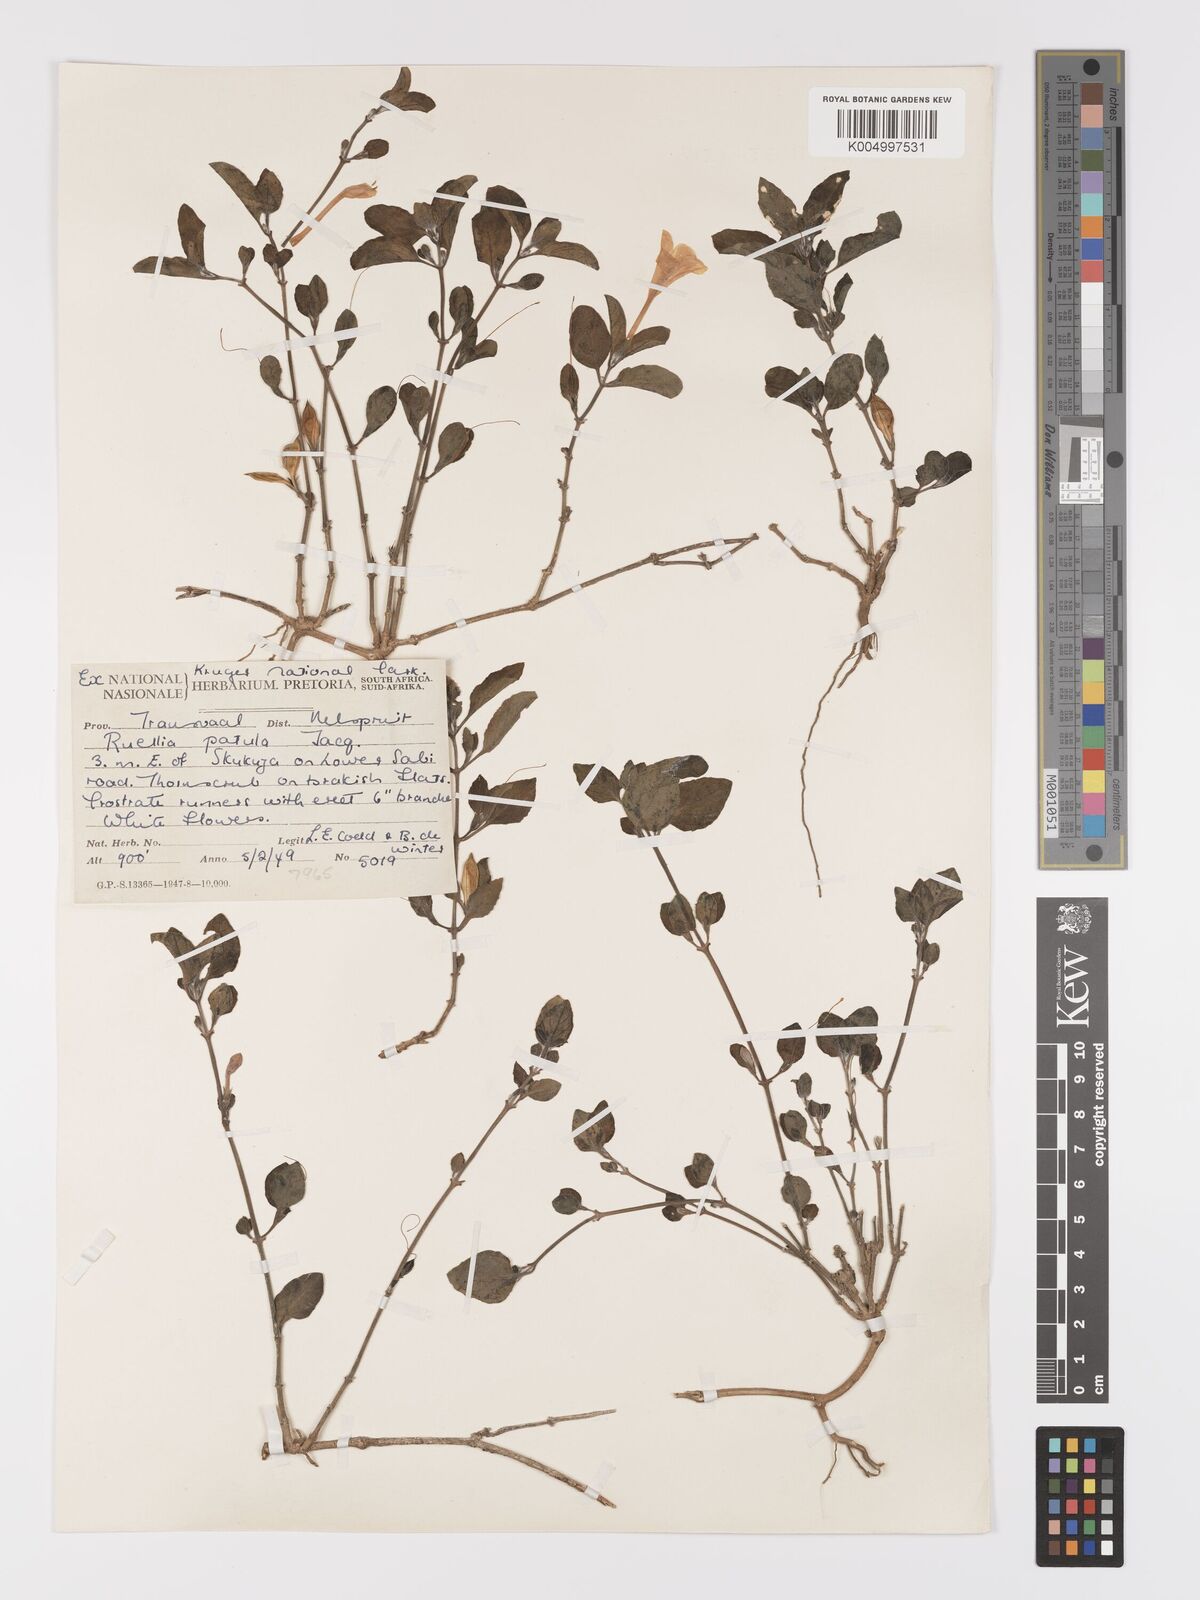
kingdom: Plantae
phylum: Tracheophyta
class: Magnoliopsida
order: Lamiales
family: Acanthaceae
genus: Ruellia
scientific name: Ruellia patula
